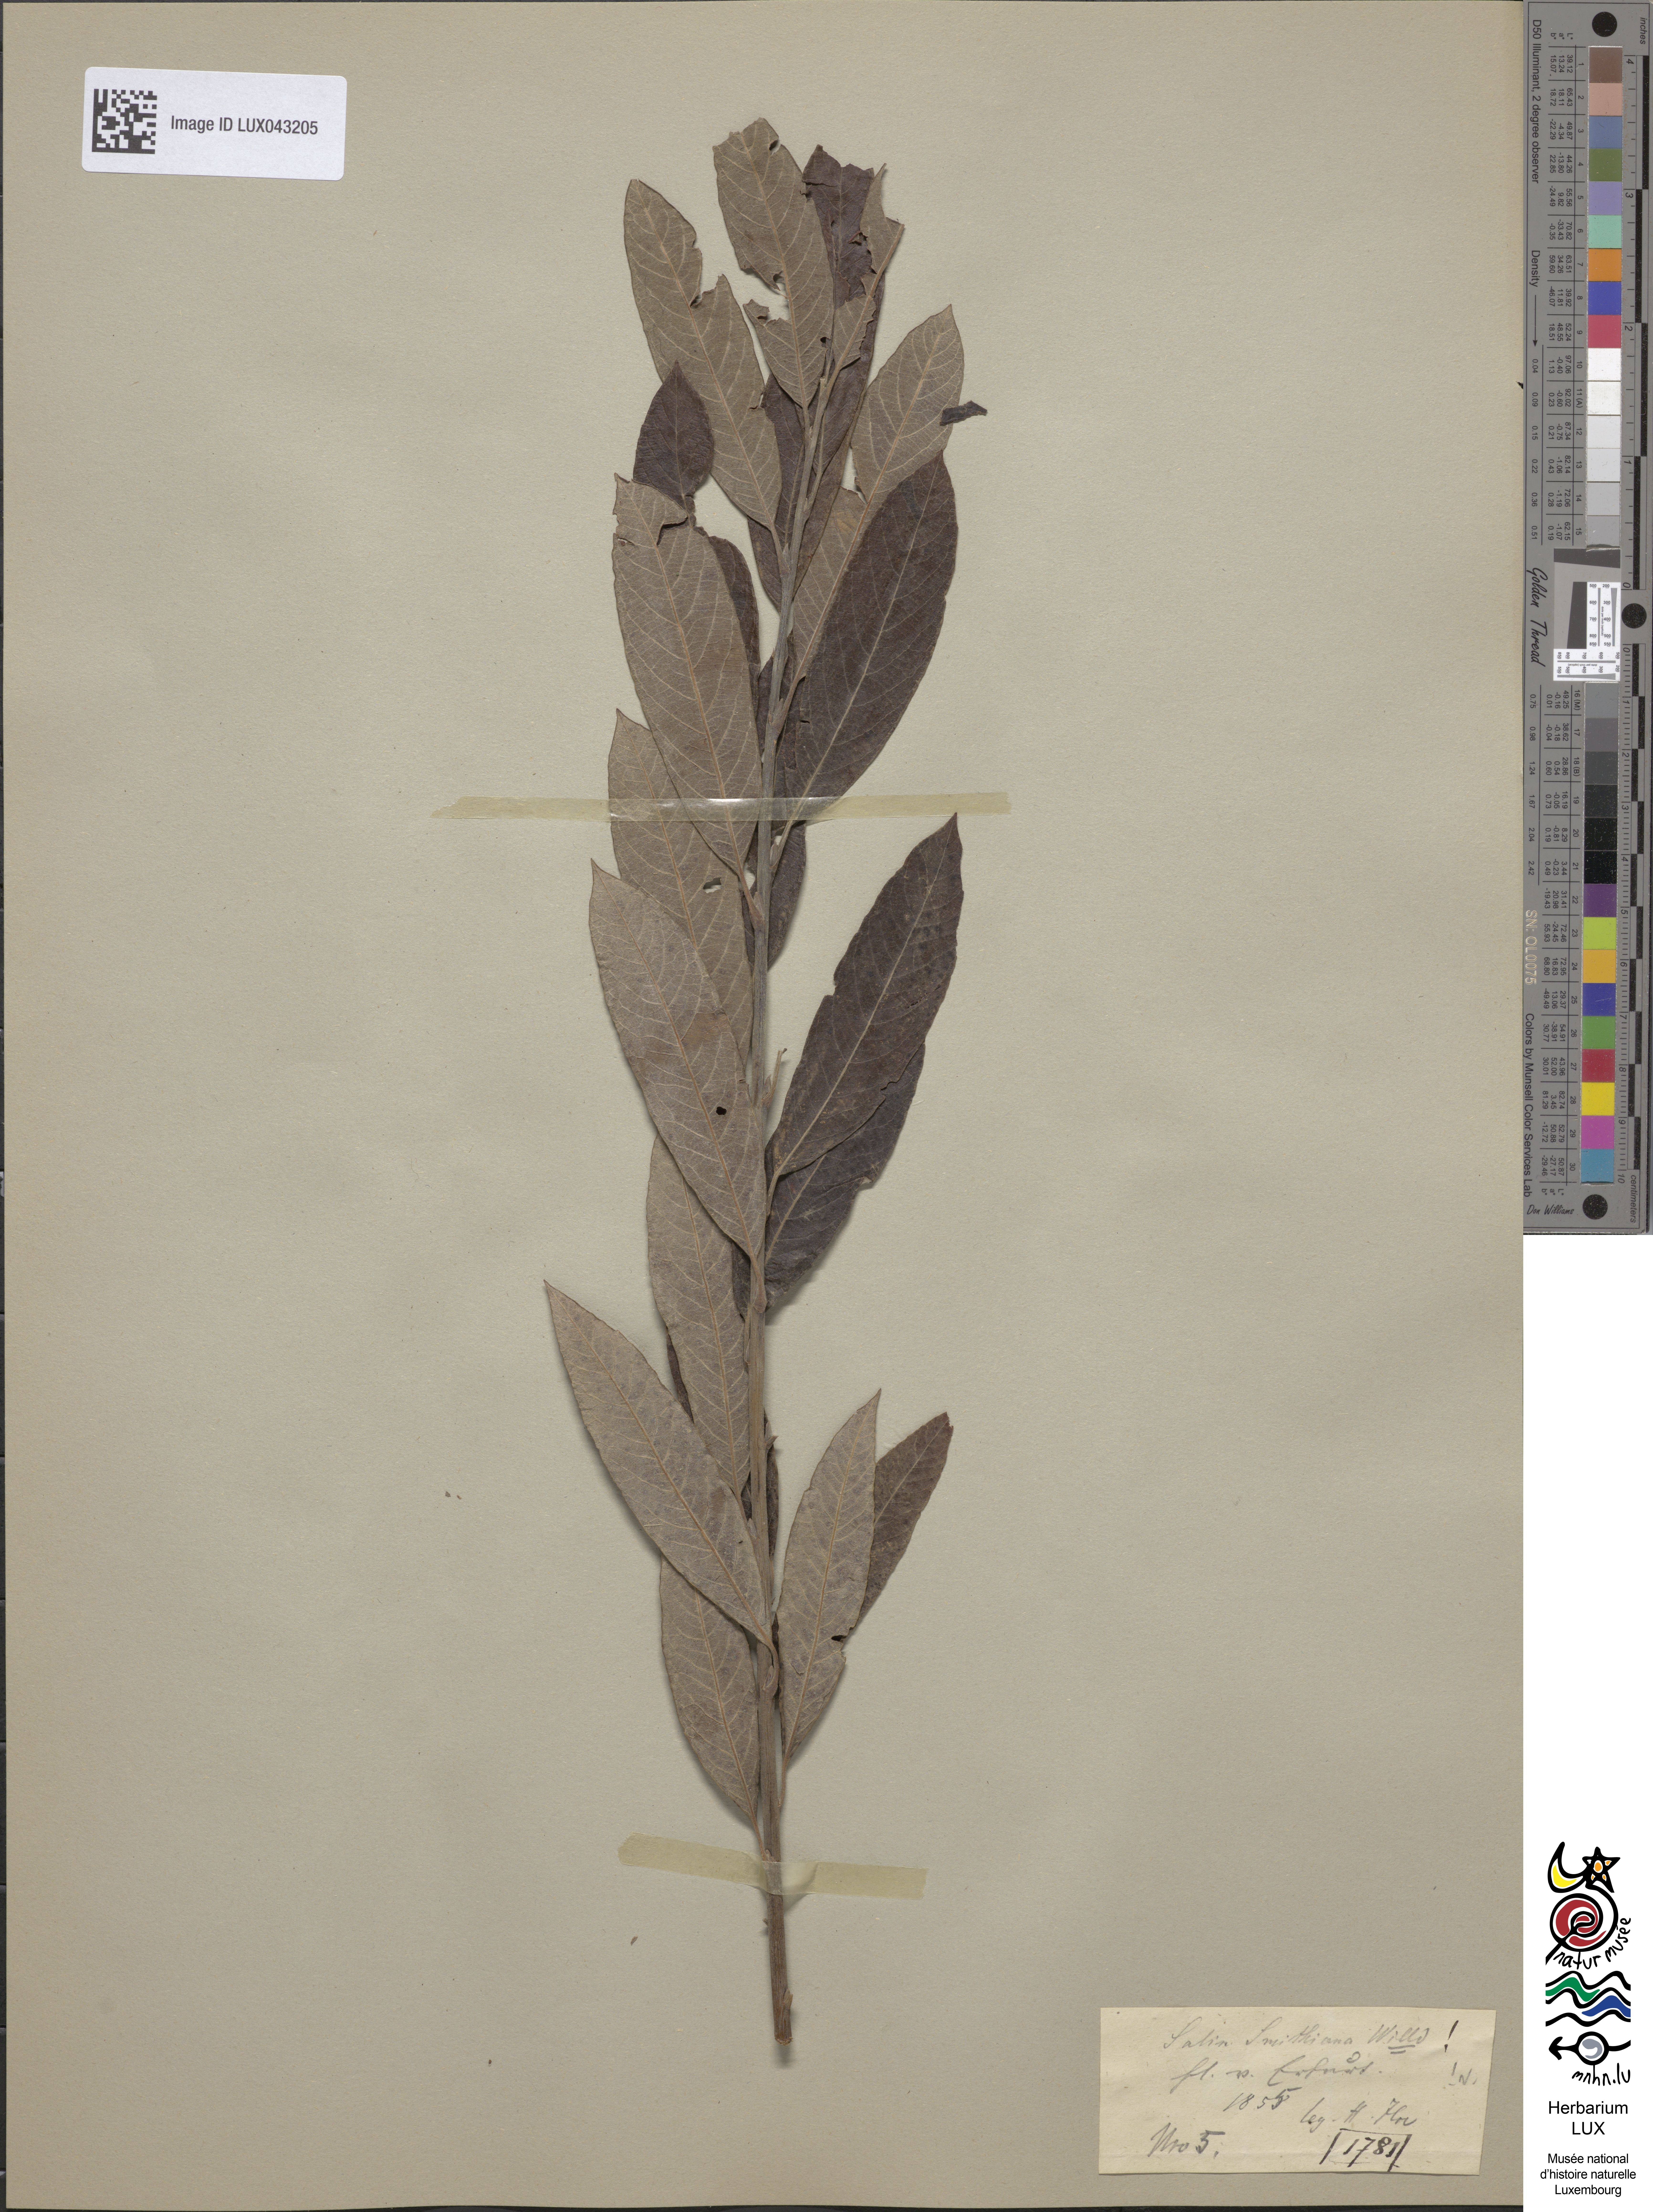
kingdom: Plantae
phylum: Tracheophyta
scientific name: Tracheophyta
